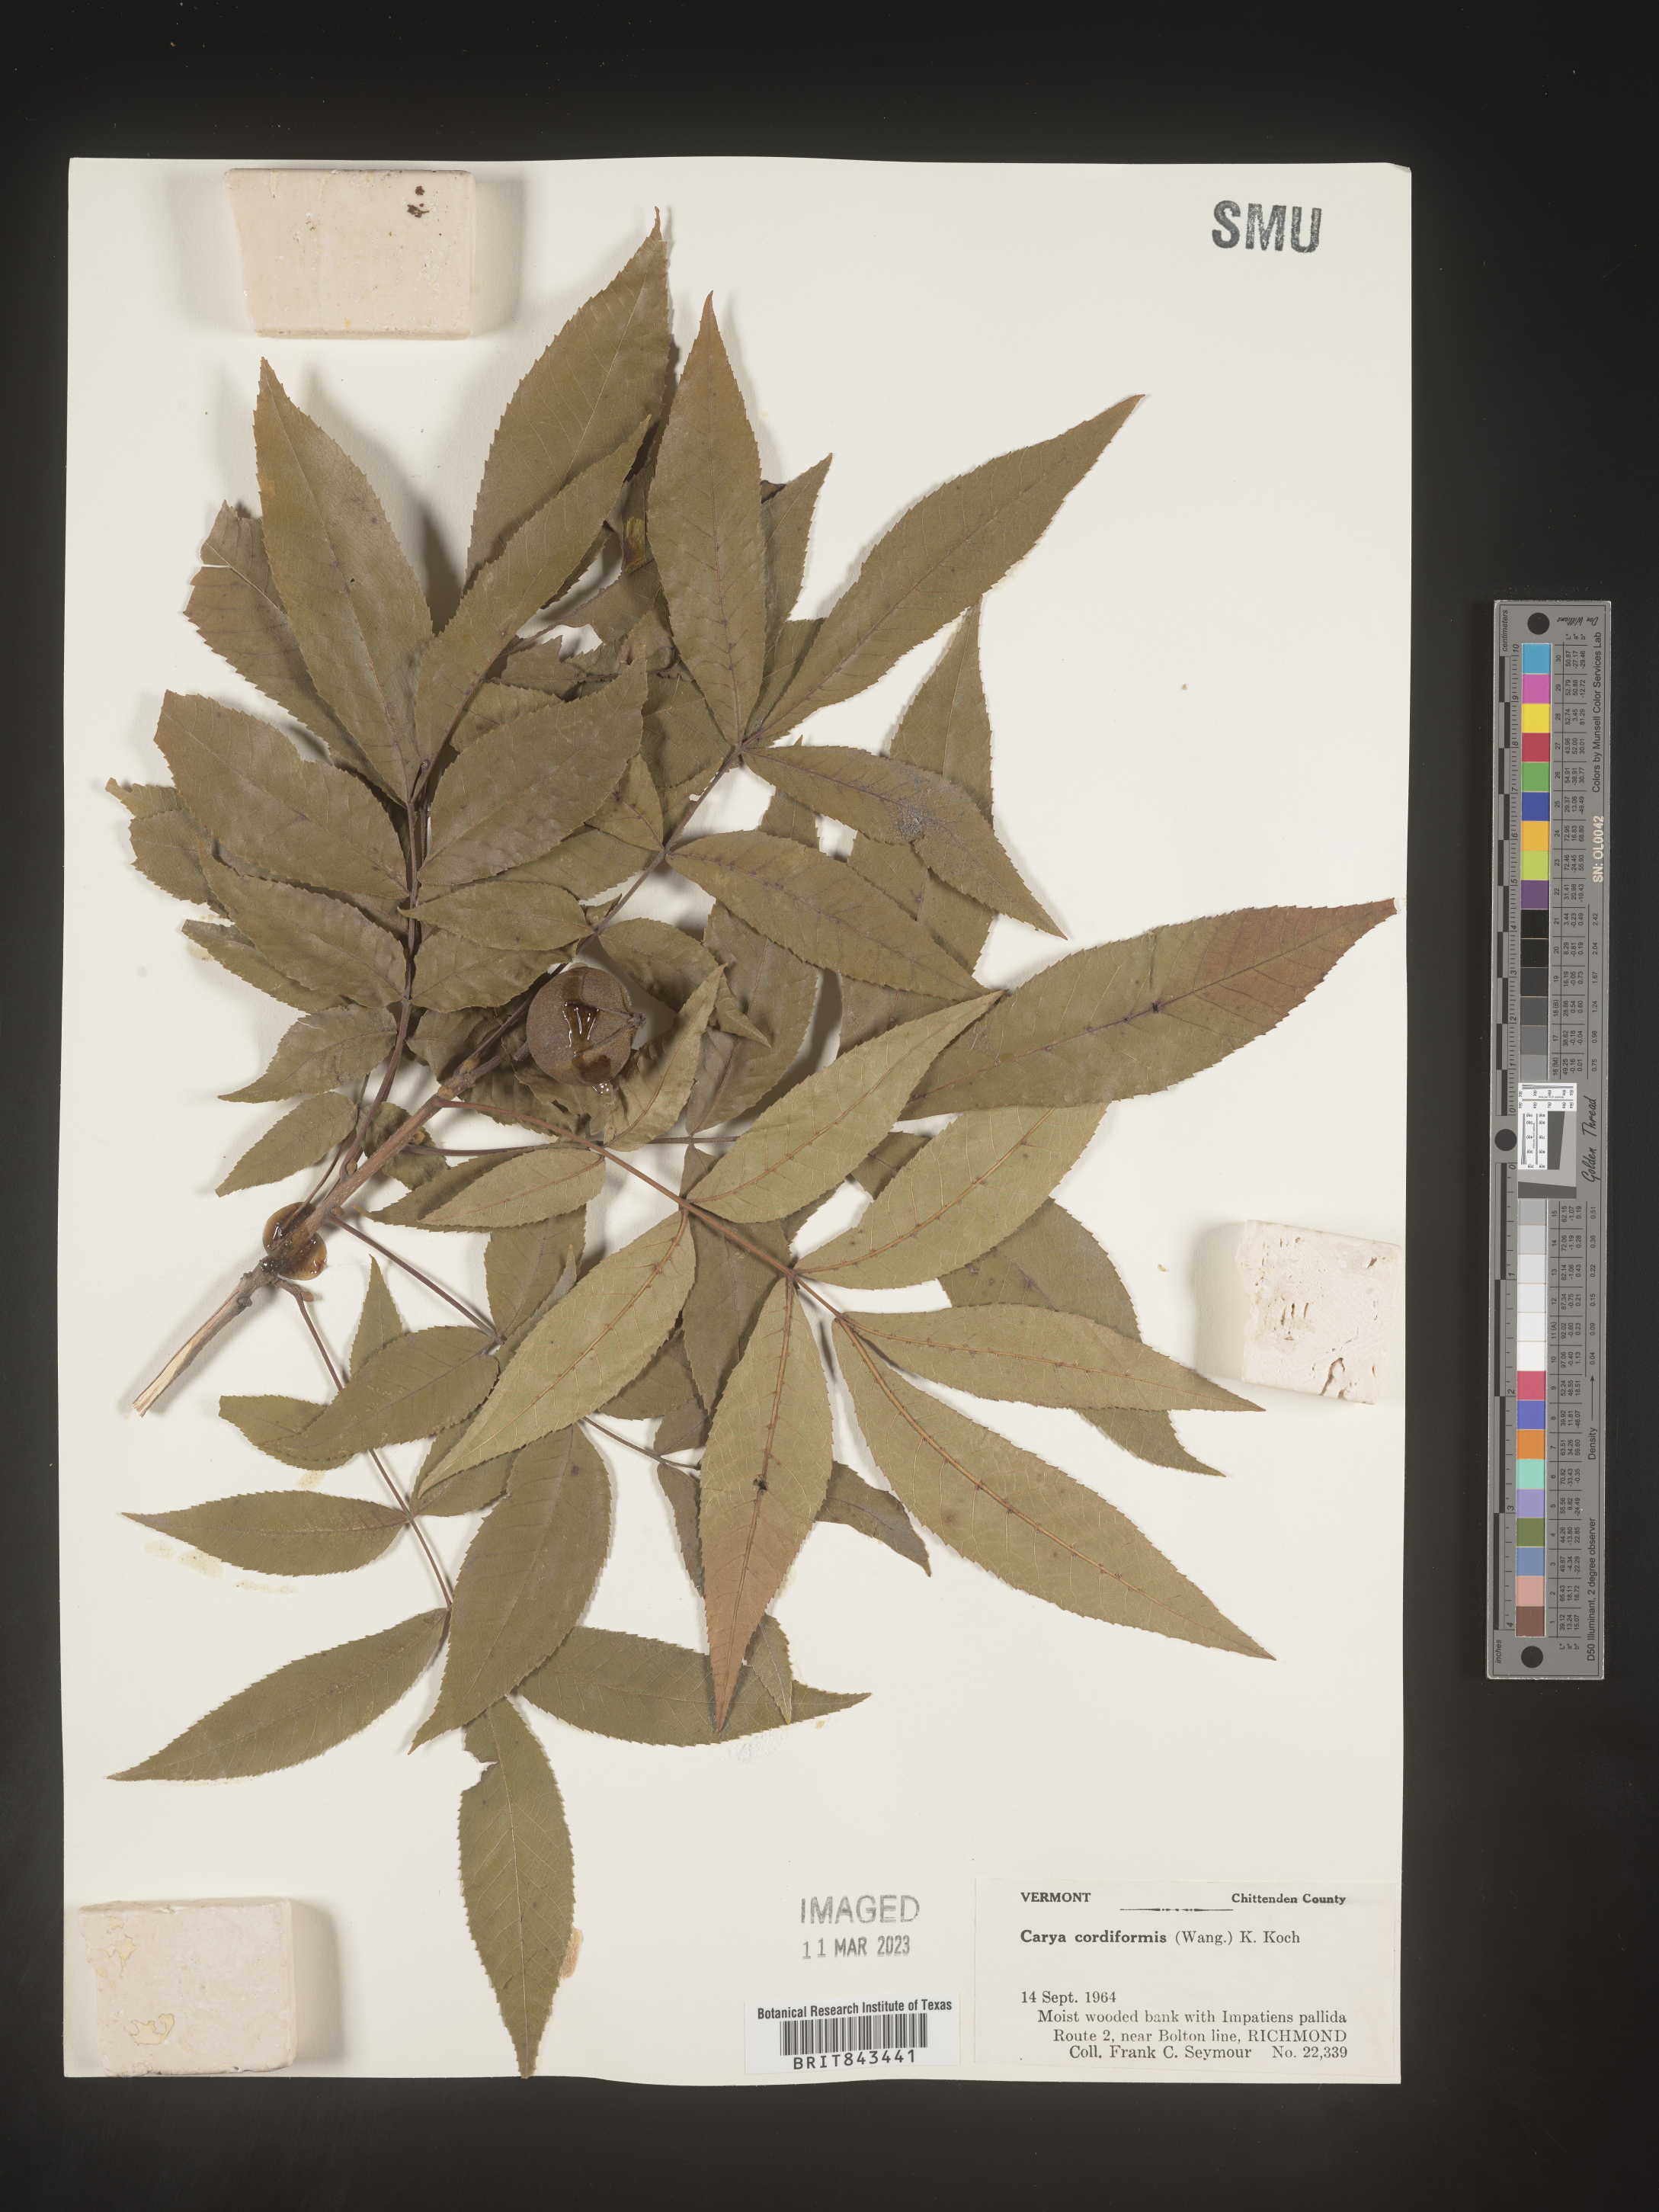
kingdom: Plantae
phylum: Tracheophyta
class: Magnoliopsida
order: Fagales
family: Juglandaceae
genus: Carya
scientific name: Carya cordiformis
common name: Bitternut hickory
